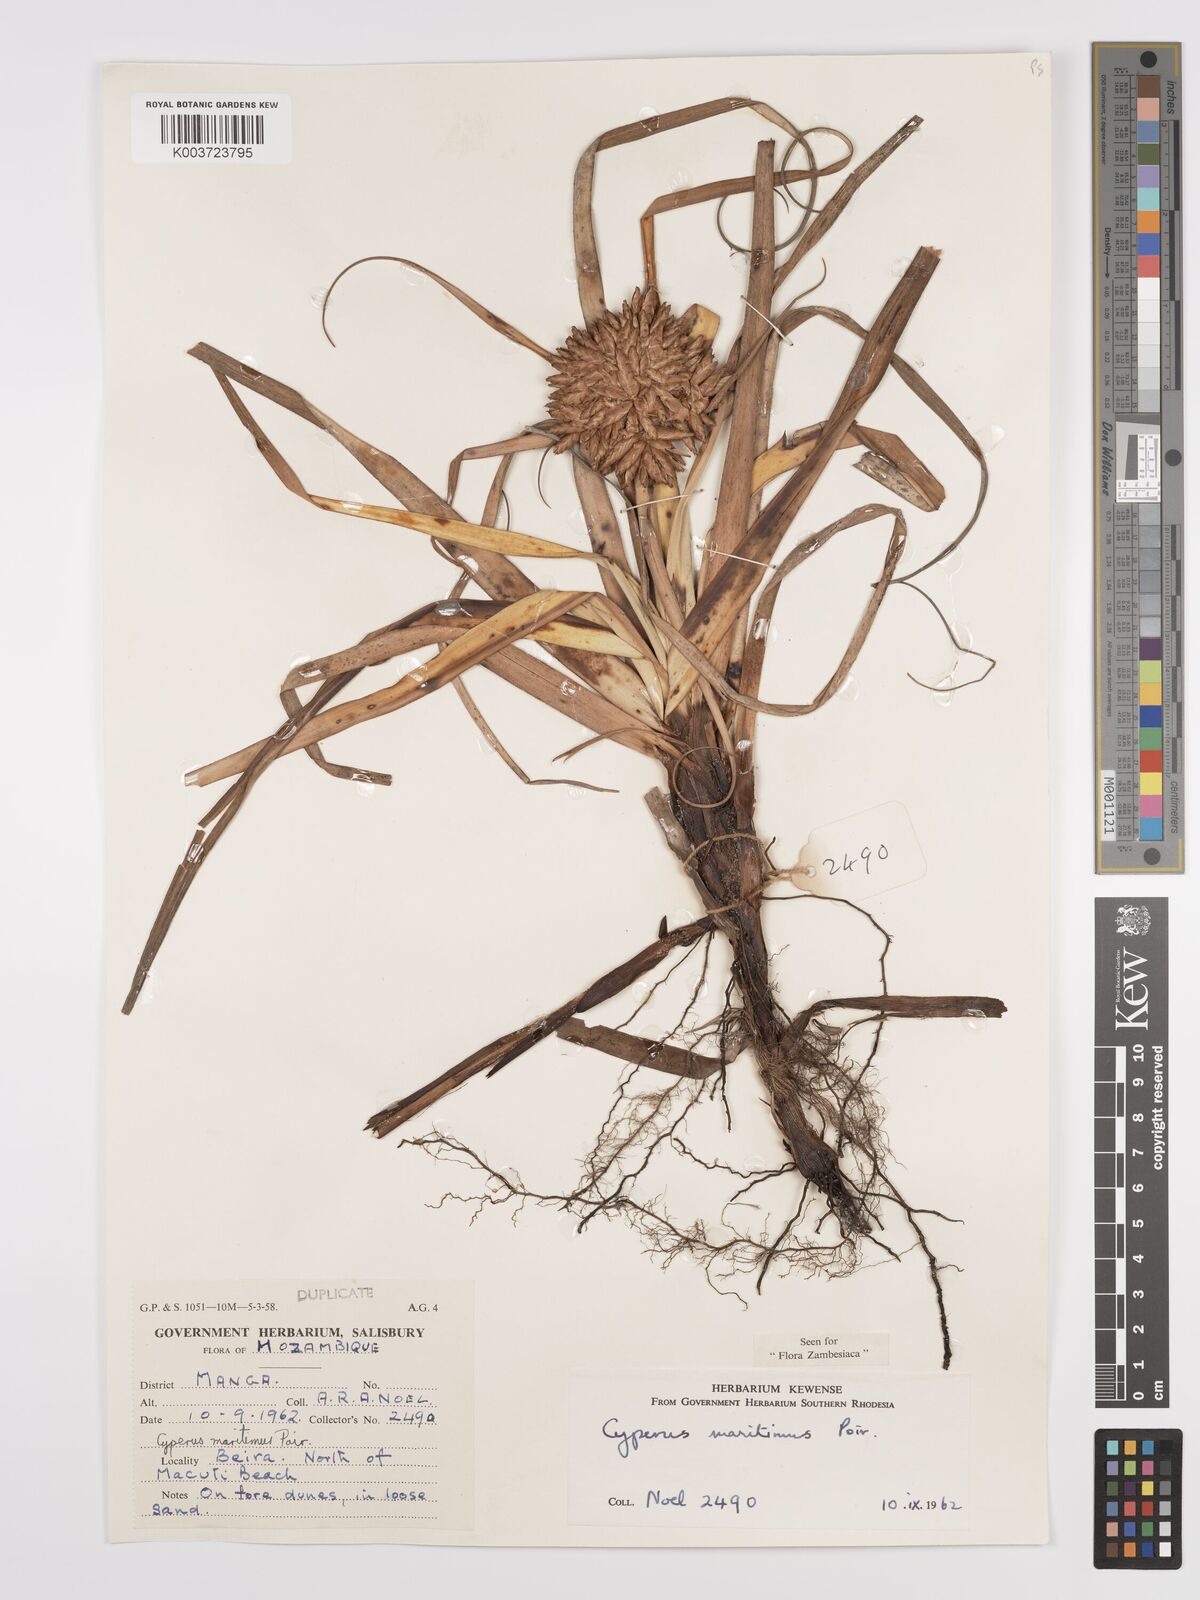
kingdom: Plantae
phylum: Tracheophyta
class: Liliopsida
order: Poales
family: Cyperaceae
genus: Cyperus
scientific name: Cyperus crassipes
